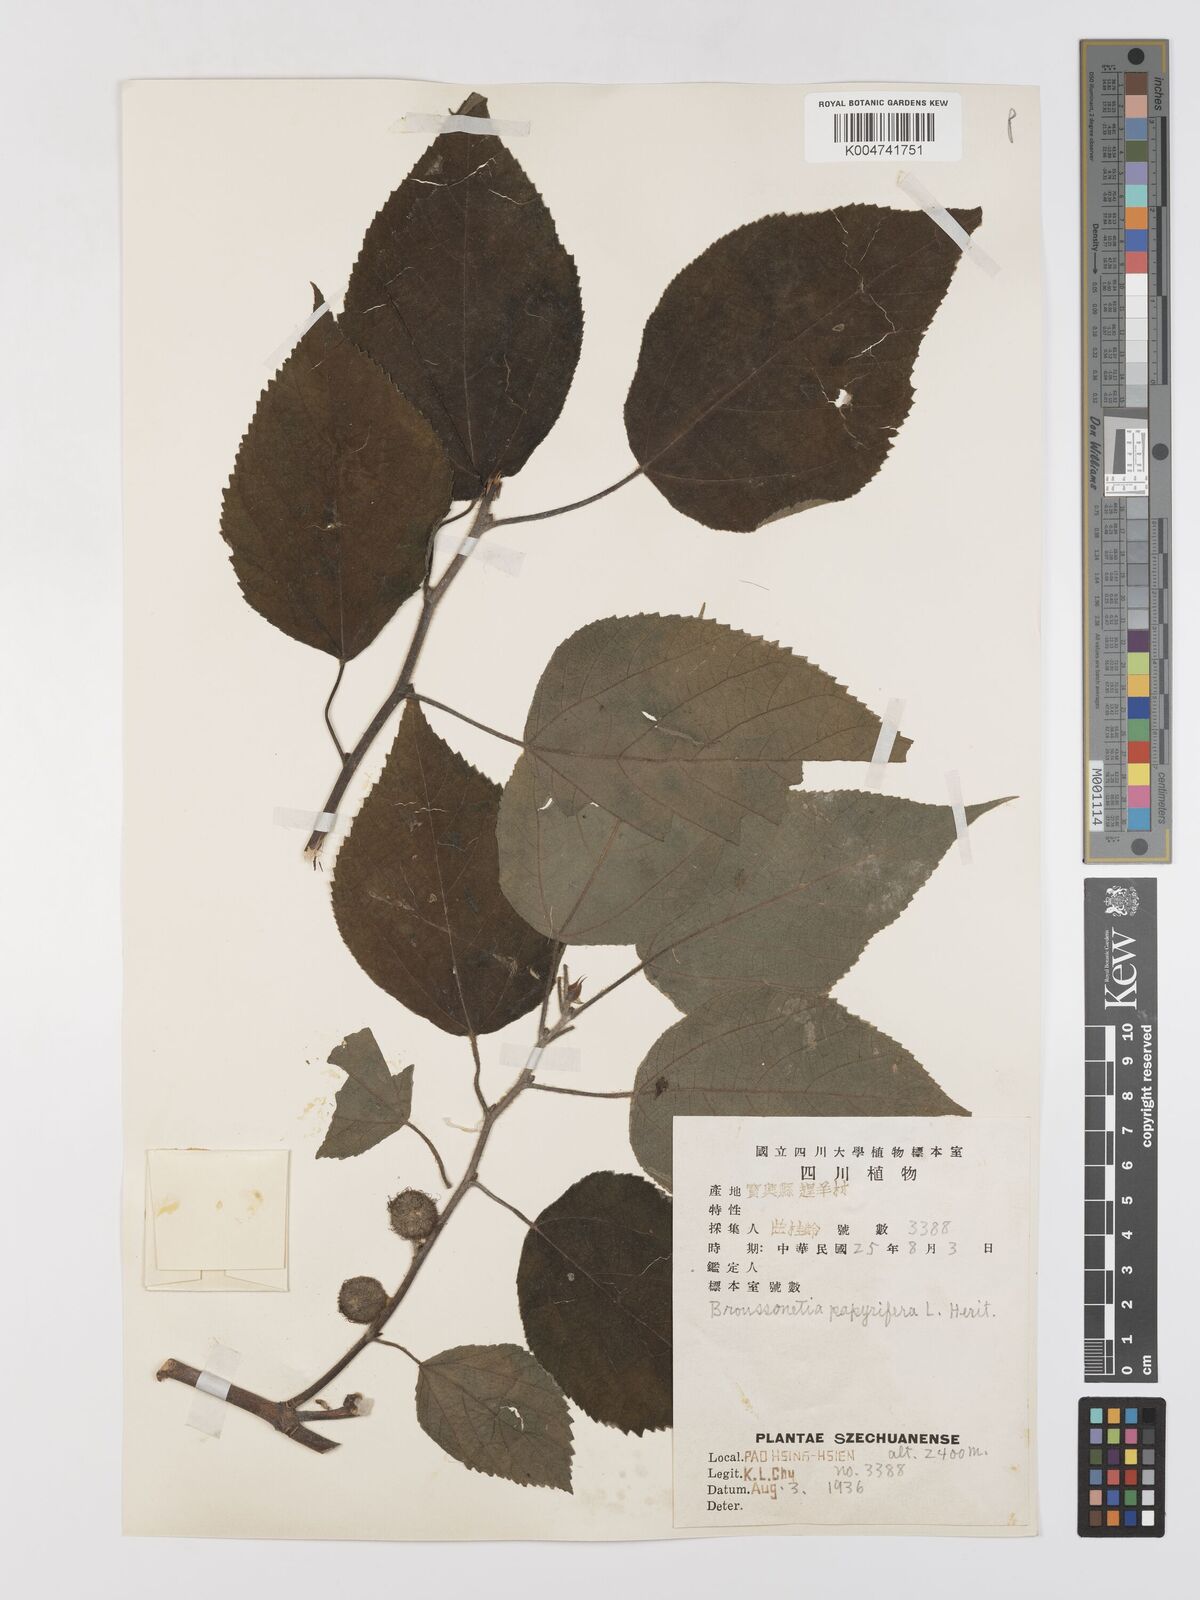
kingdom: Plantae
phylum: Tracheophyta
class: Magnoliopsida
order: Rosales
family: Moraceae
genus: Broussonetia
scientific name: Broussonetia
